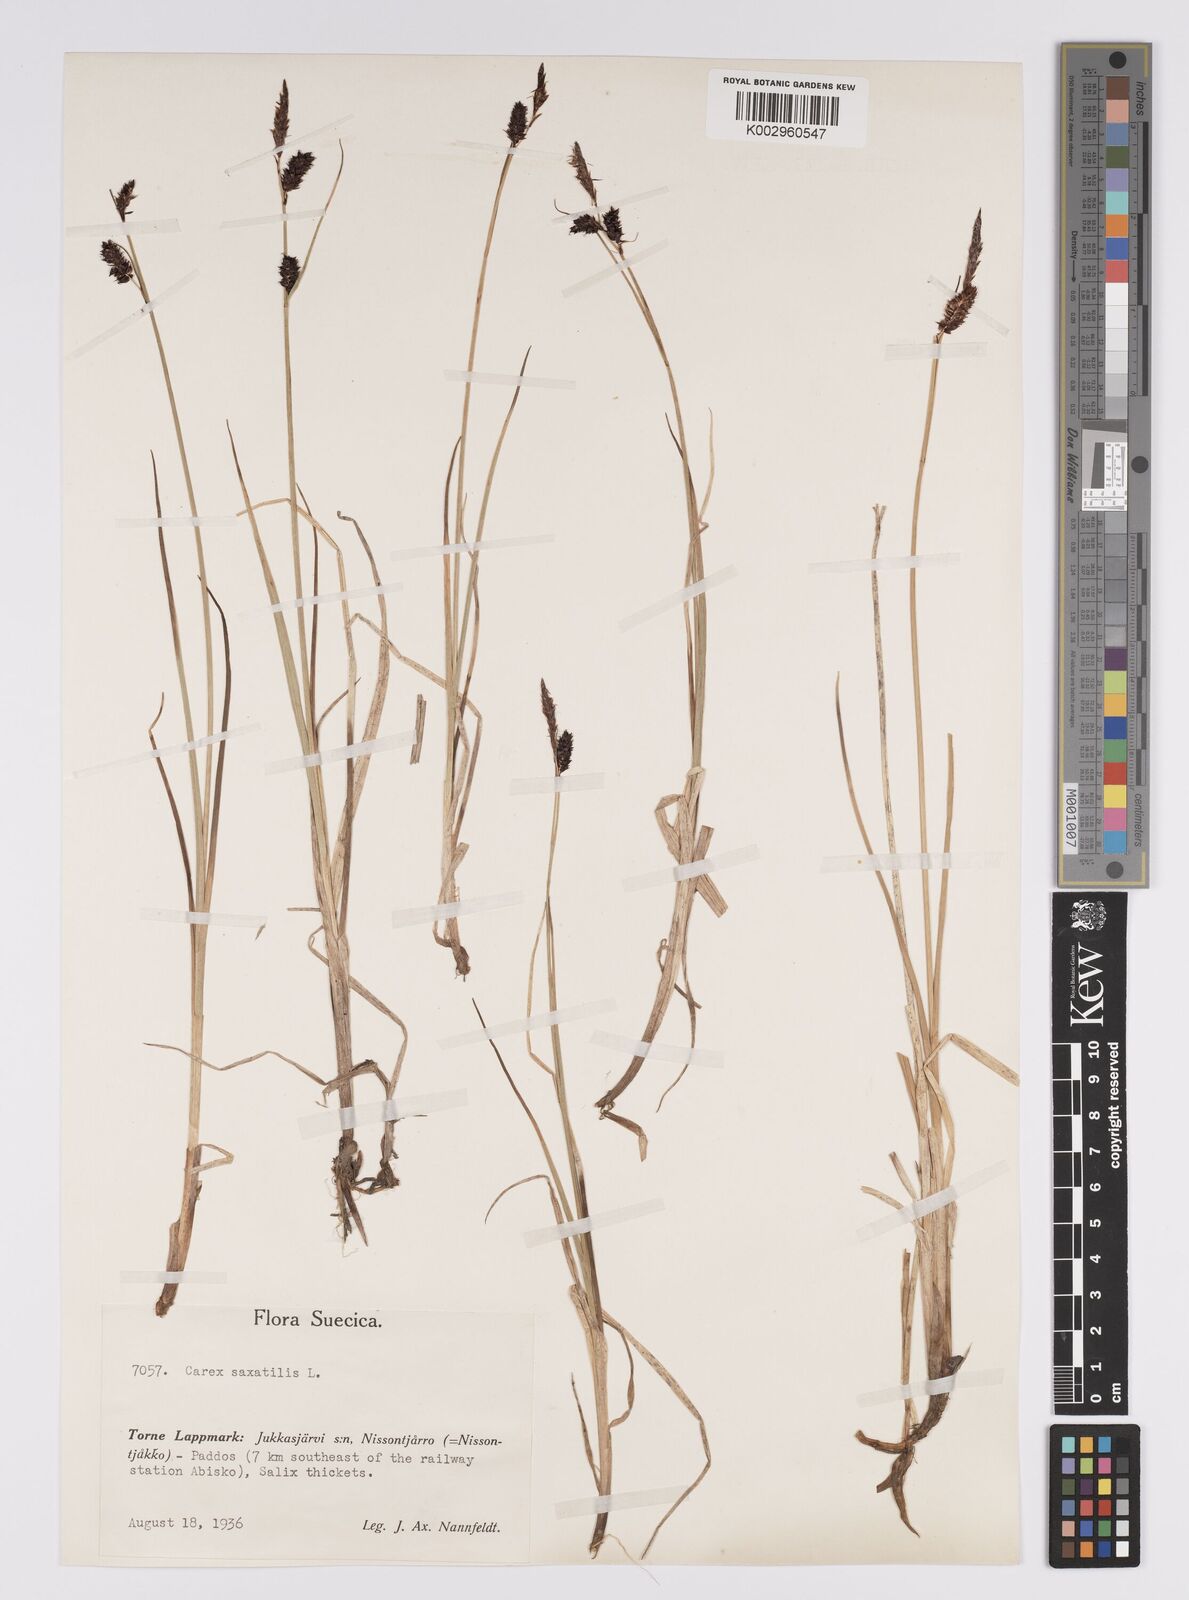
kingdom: Plantae
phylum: Tracheophyta
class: Liliopsida
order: Poales
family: Cyperaceae
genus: Carex
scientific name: Carex saxatilis
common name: Russet sedge
